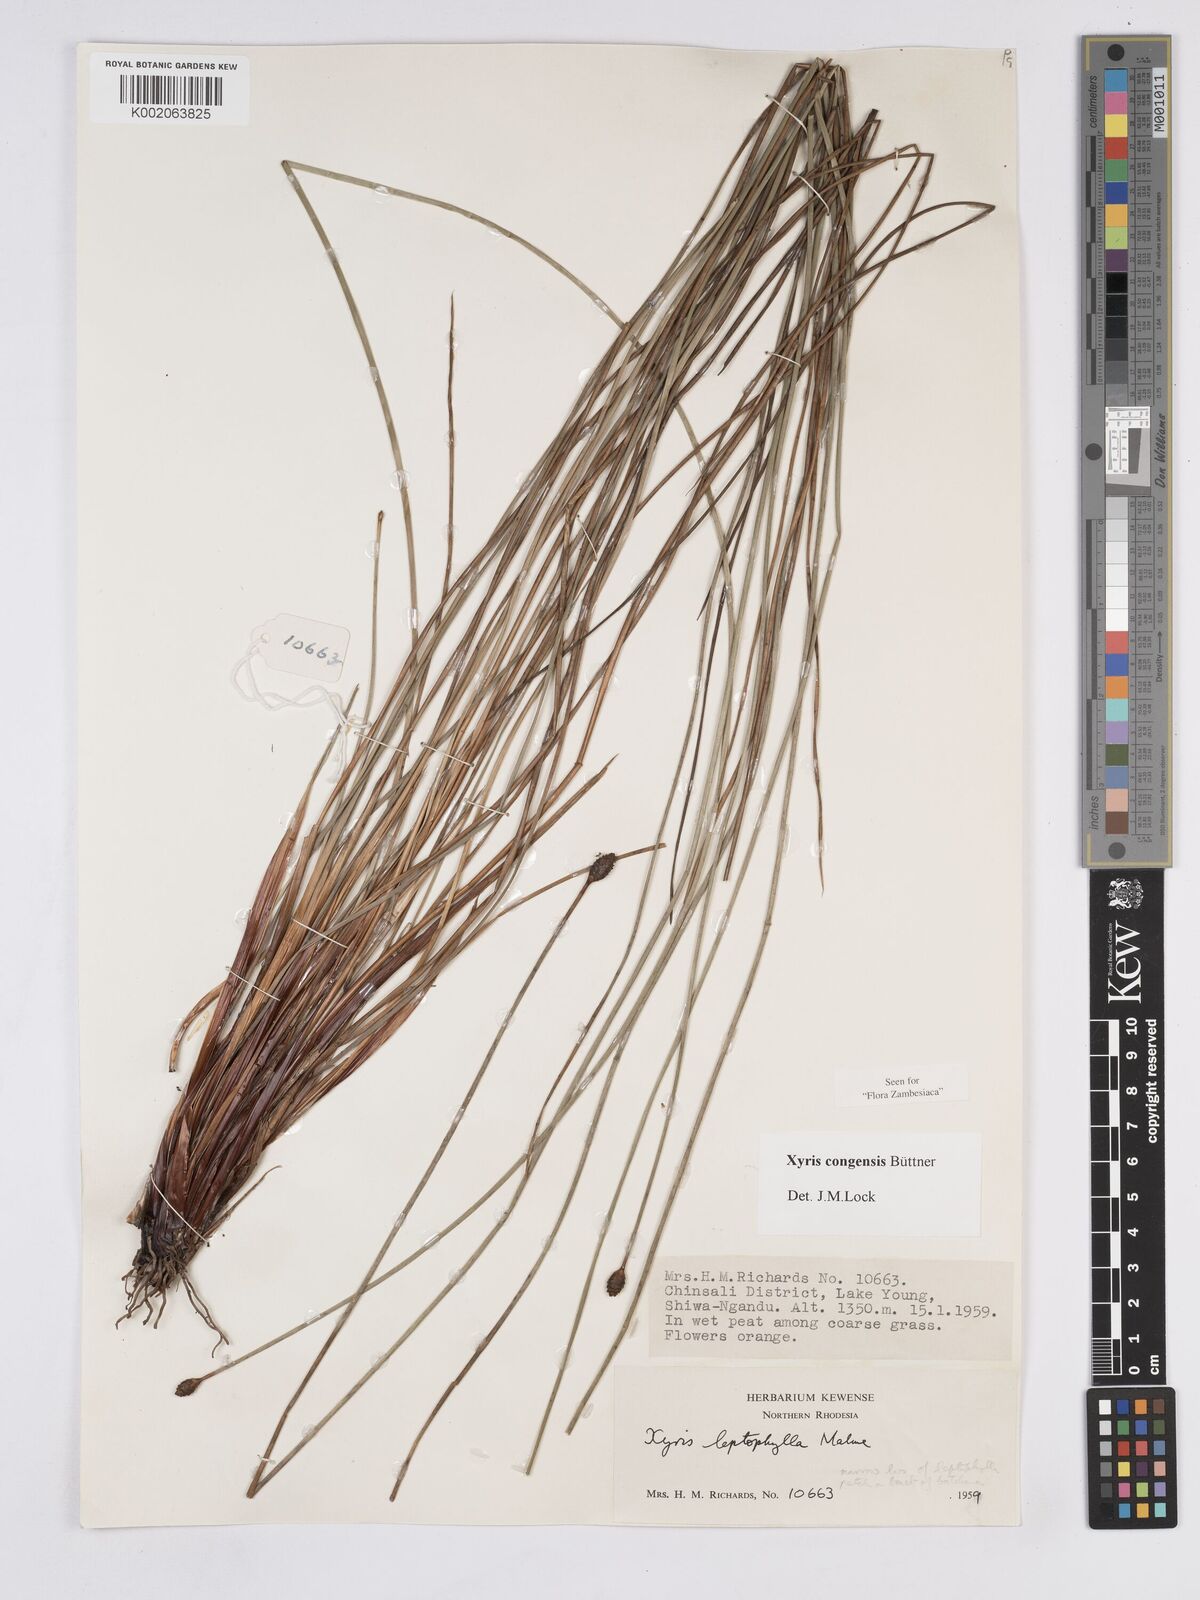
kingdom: Plantae
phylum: Tracheophyta
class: Liliopsida
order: Poales
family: Xyridaceae
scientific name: Xyridaceae
